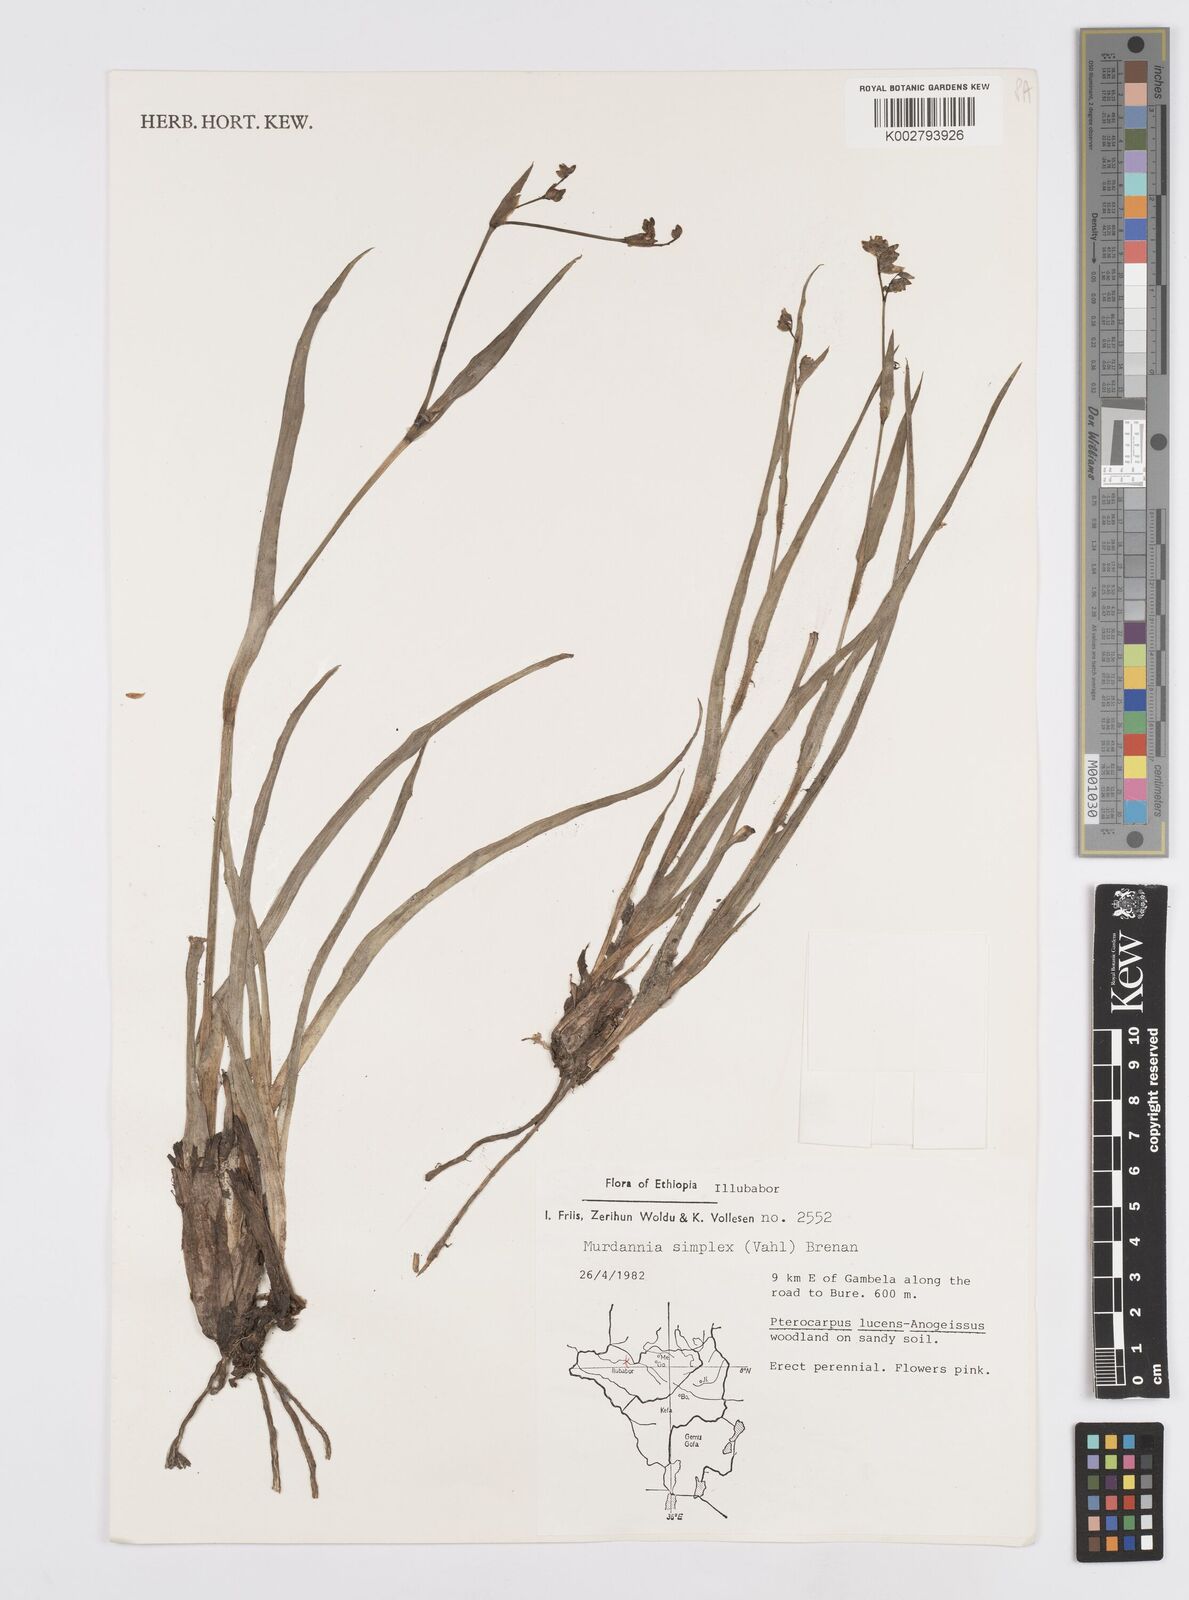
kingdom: Plantae
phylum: Tracheophyta
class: Liliopsida
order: Commelinales
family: Commelinaceae
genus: Murdannia
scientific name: Murdannia simplex
